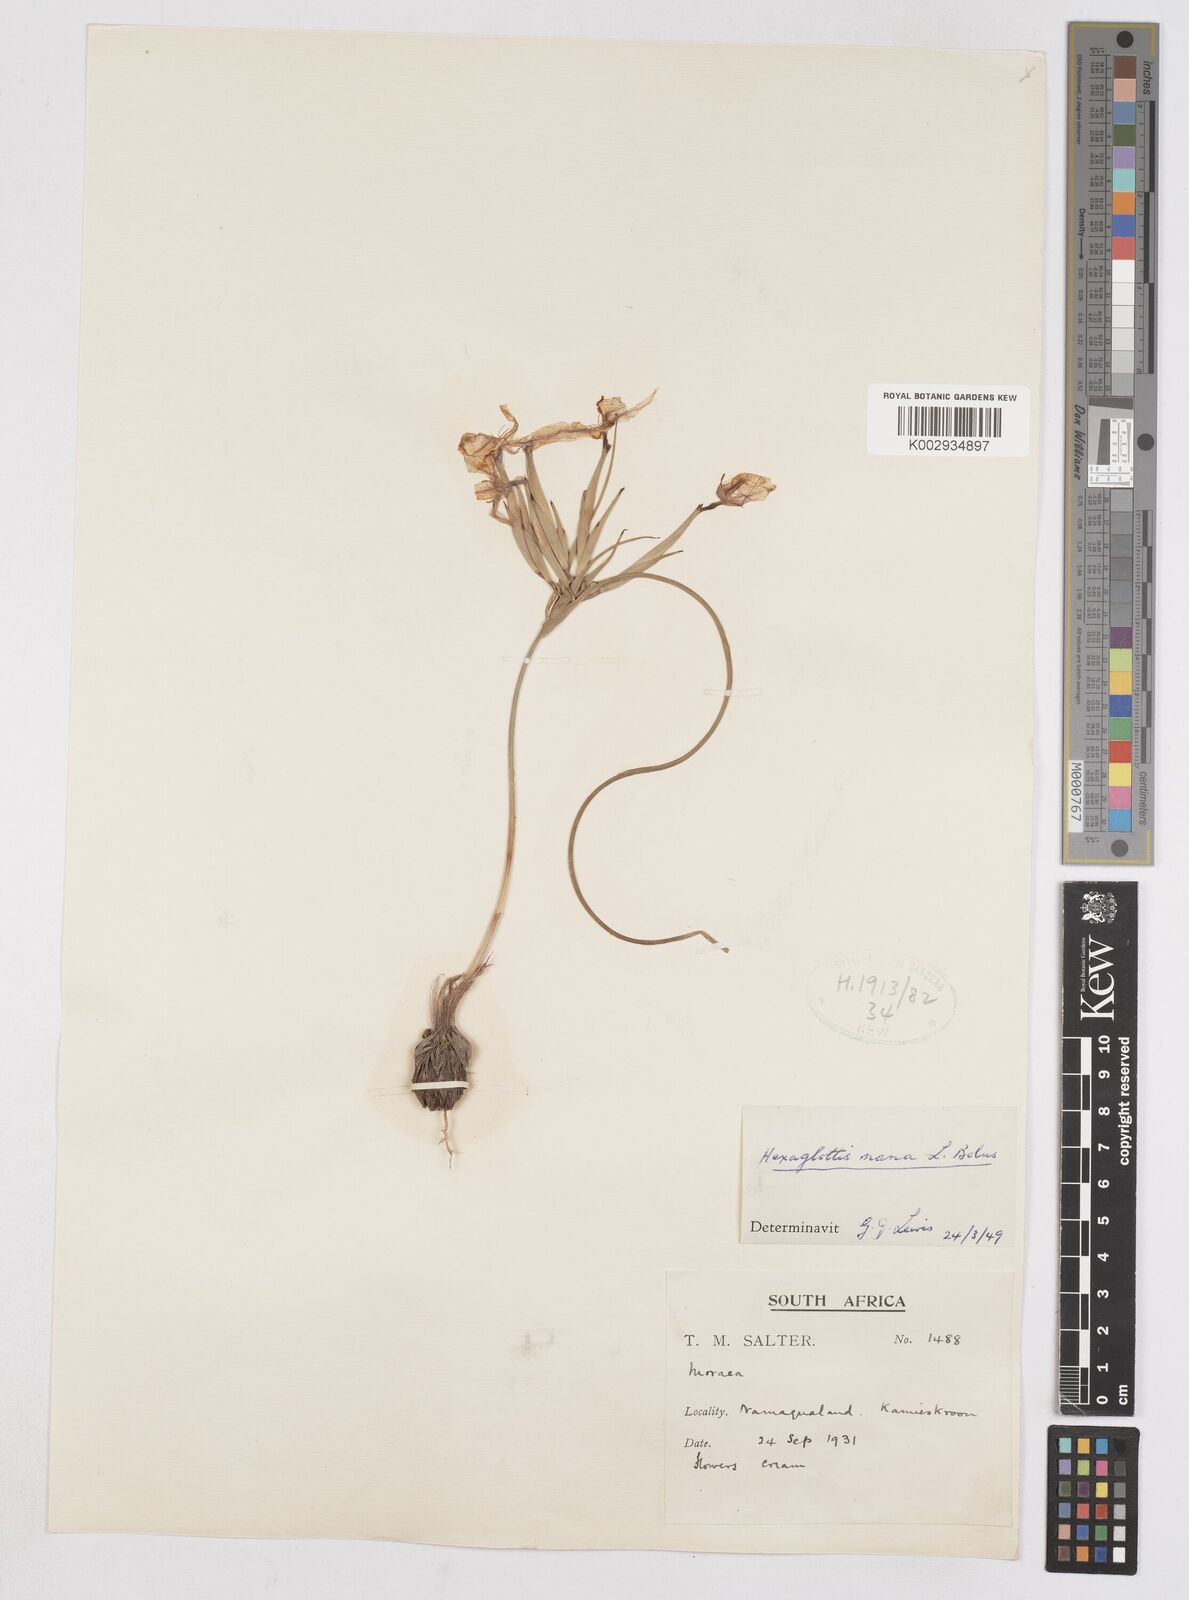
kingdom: Plantae
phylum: Tracheophyta
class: Liliopsida
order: Asparagales
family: Iridaceae
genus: Moraea
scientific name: Moraea nana
